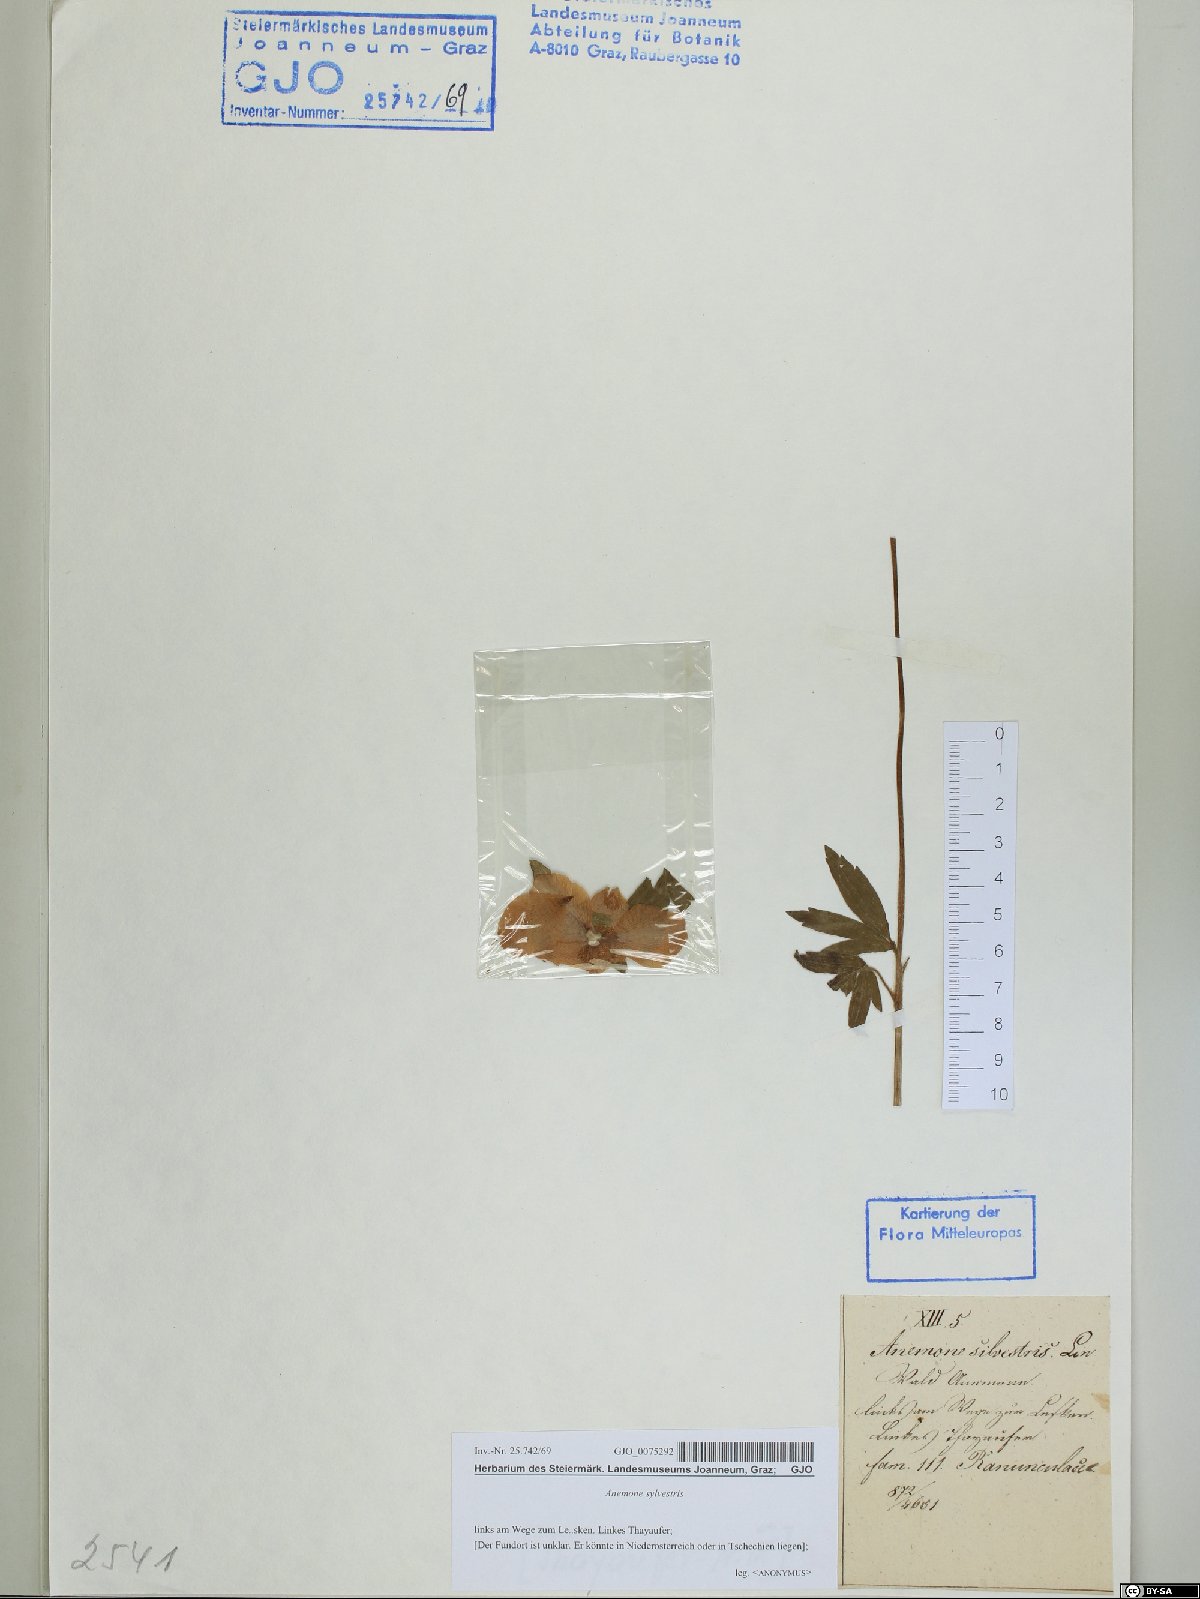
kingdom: Plantae
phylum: Tracheophyta
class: Magnoliopsida
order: Ranunculales
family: Ranunculaceae
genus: Anemone
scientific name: Anemone sylvestris
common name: Snowdrop anemone
